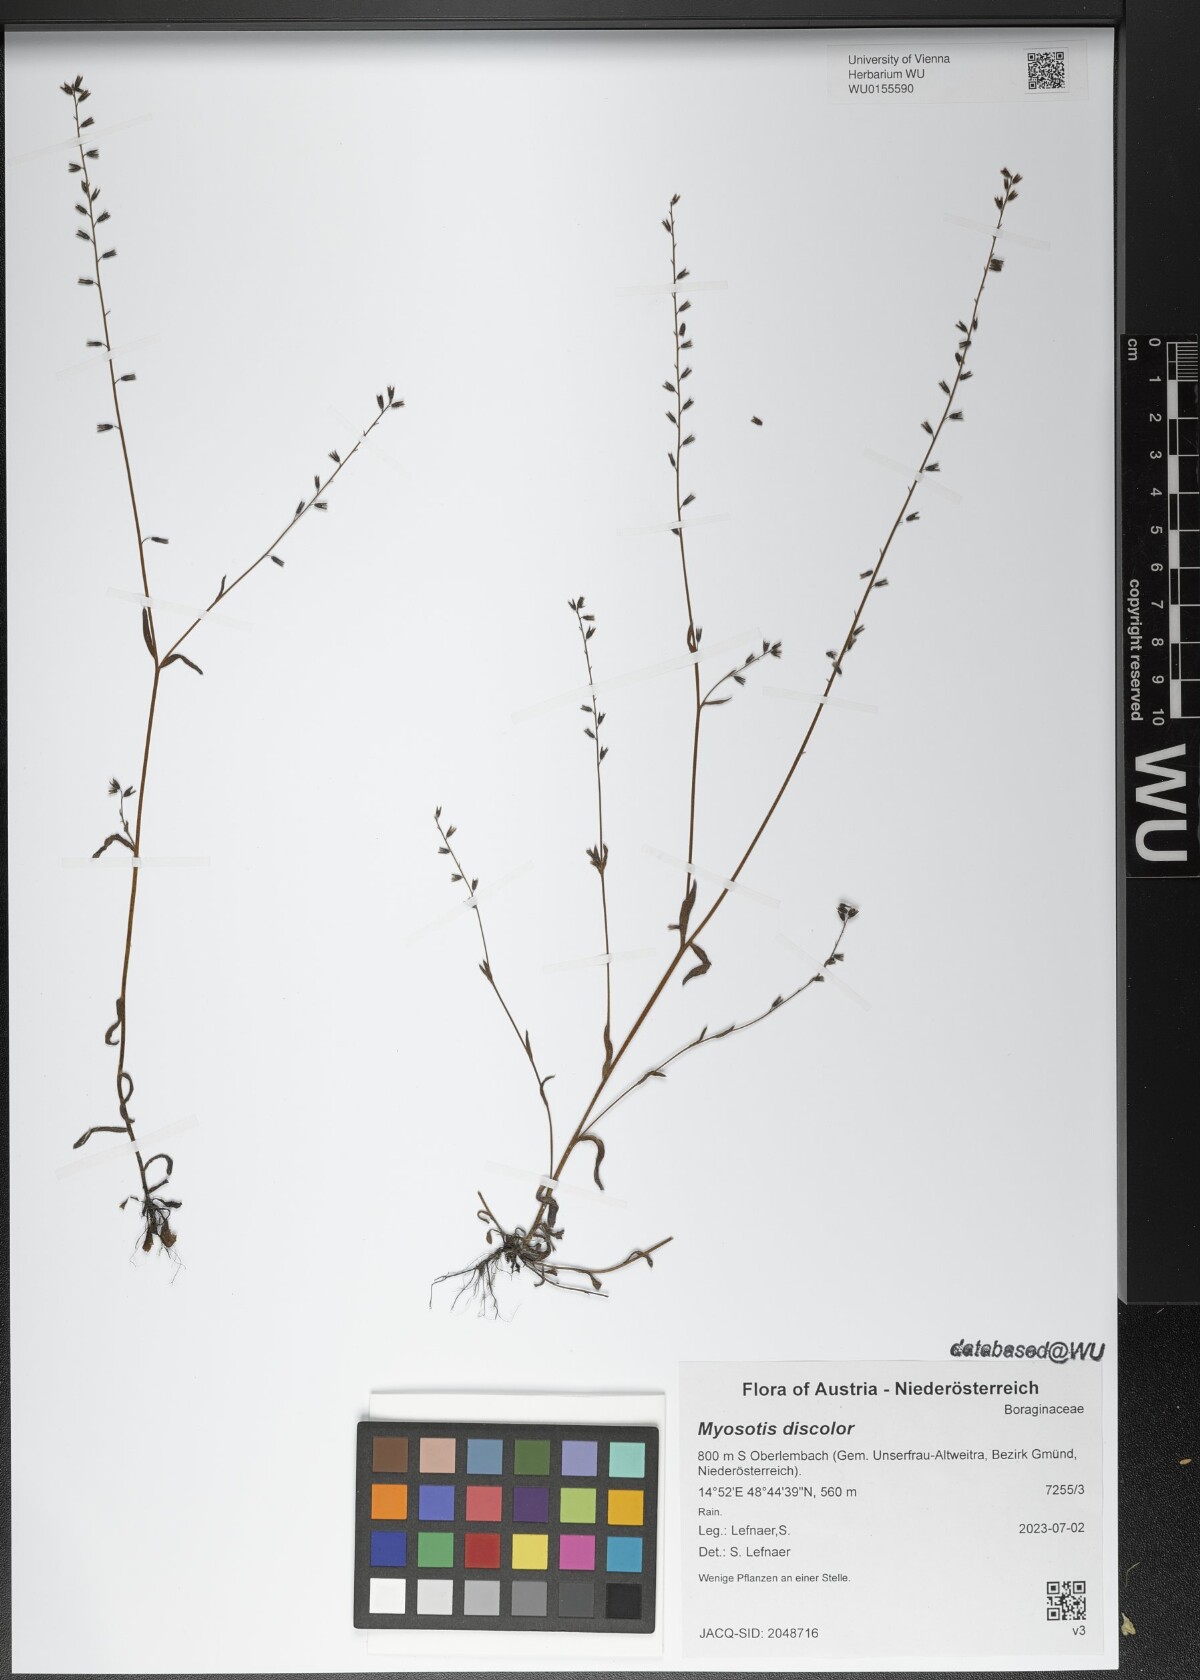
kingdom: Plantae
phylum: Tracheophyta
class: Magnoliopsida
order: Boraginales
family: Boraginaceae
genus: Myosotis
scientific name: Myosotis discolor
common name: Changing forget-me-not
